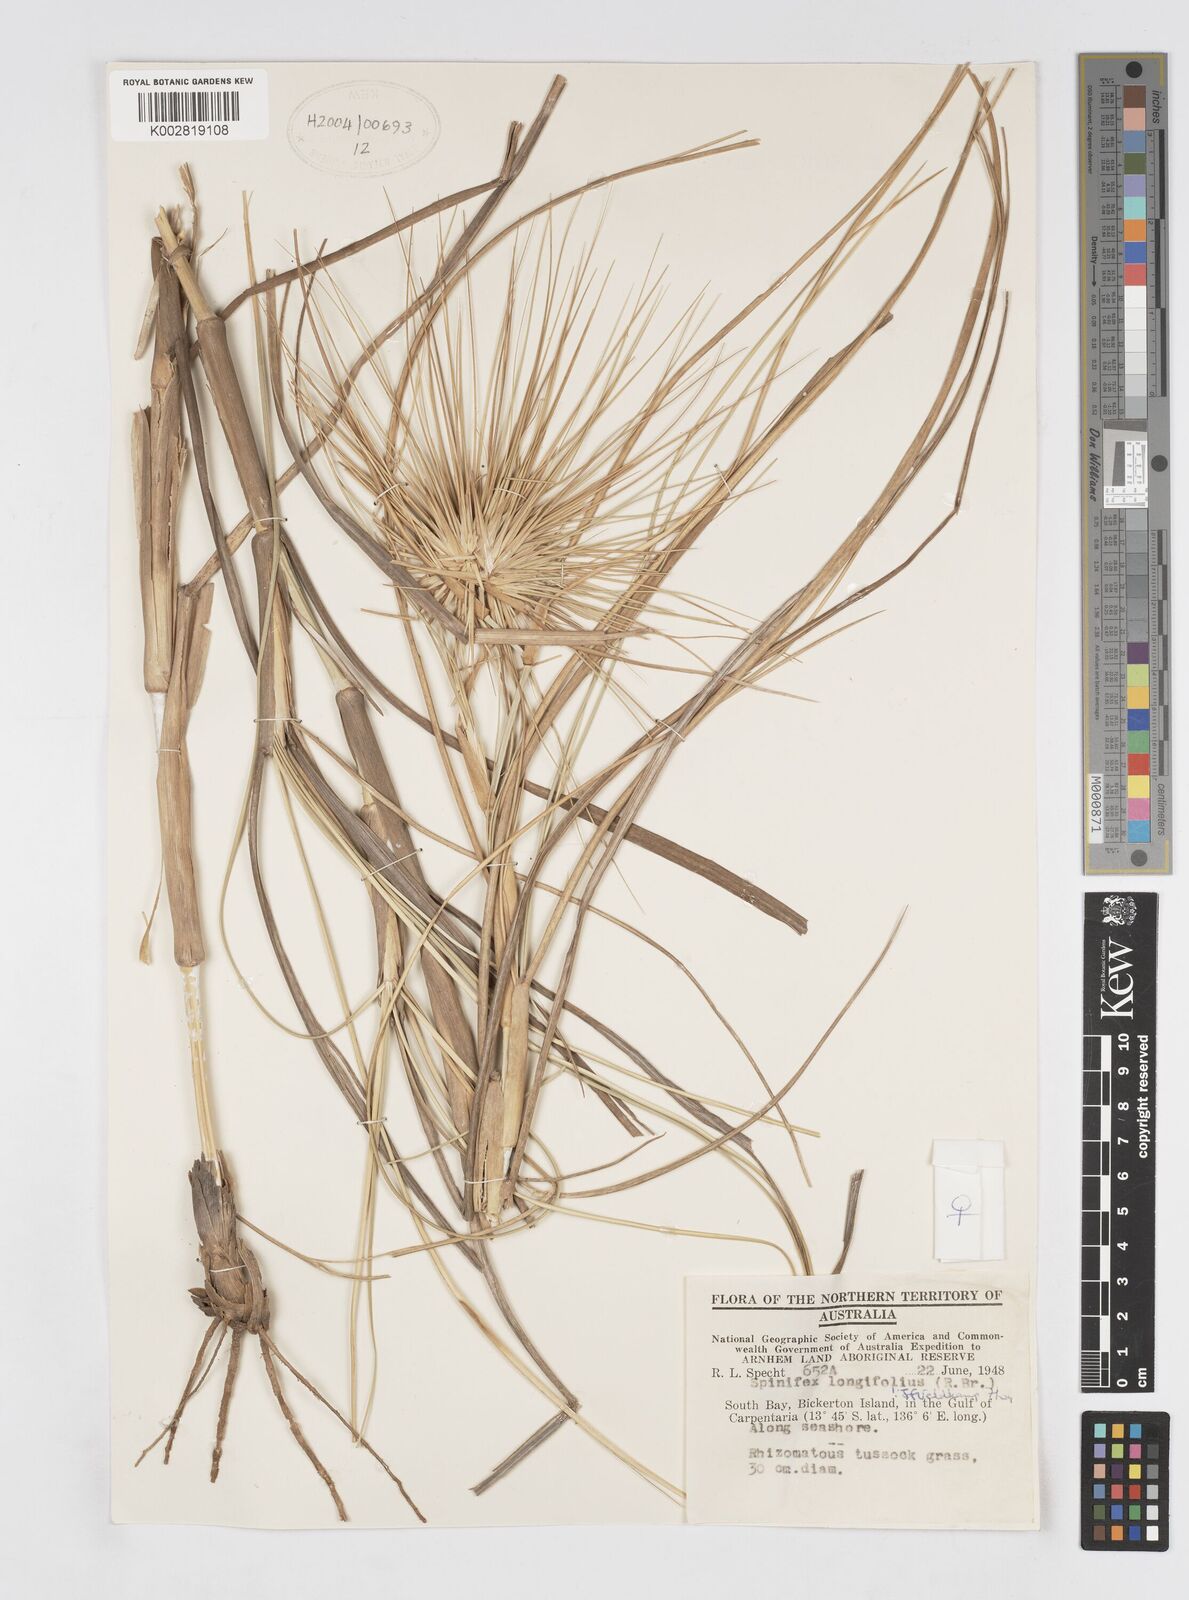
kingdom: Plantae
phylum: Tracheophyta
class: Liliopsida
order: Poales
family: Poaceae
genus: Spinifex
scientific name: Spinifex longifolius
